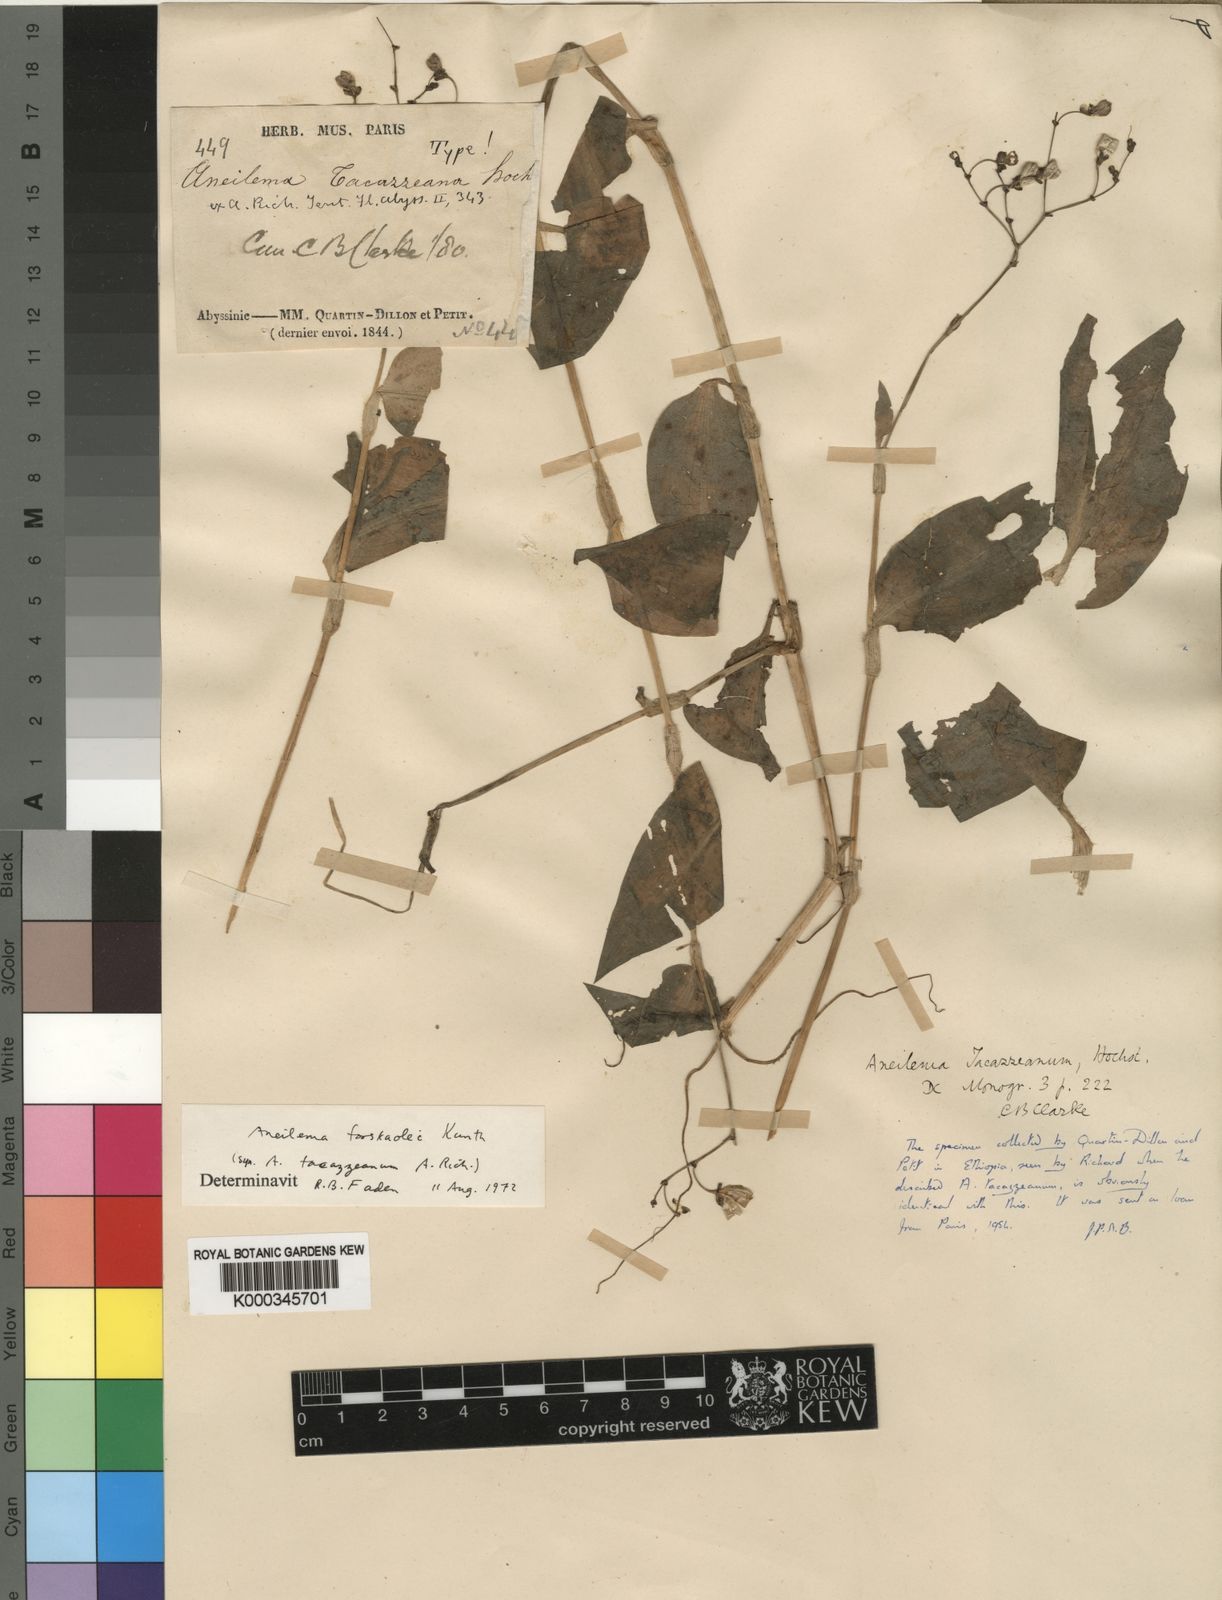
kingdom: Plantae
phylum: Tracheophyta
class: Liliopsida
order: Commelinales
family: Commelinaceae
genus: Aneilema
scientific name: Aneilema
